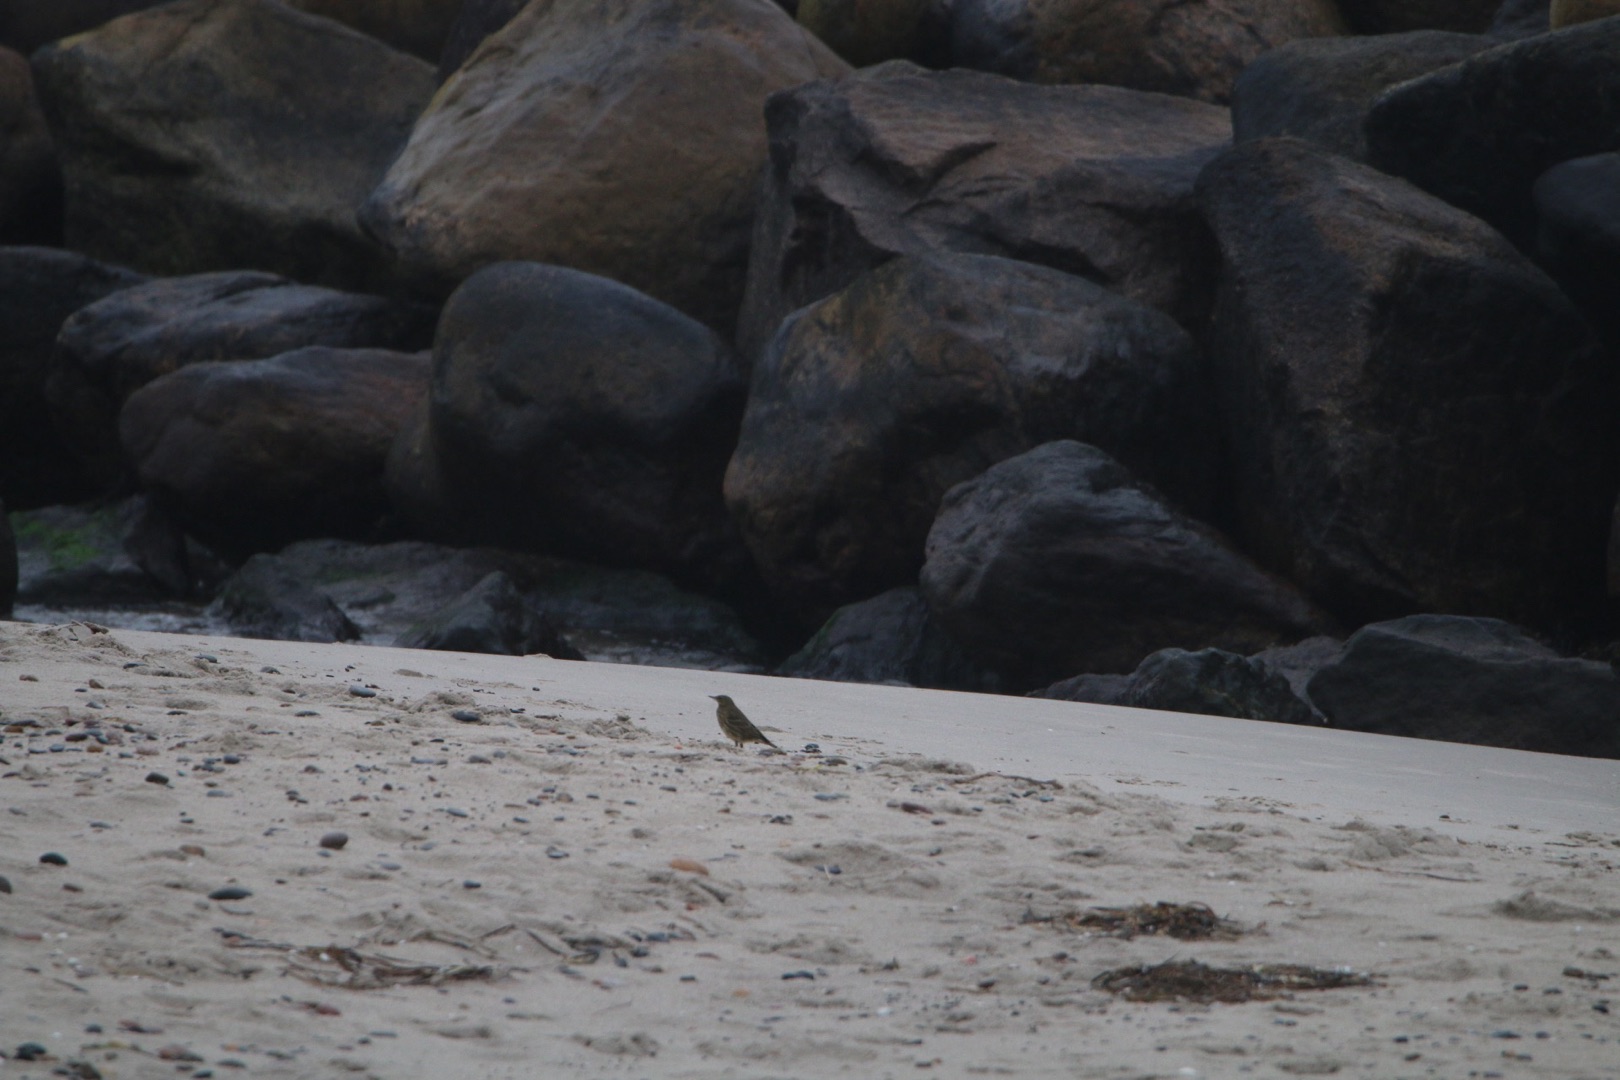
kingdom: Animalia
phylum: Chordata
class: Aves
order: Passeriformes
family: Motacillidae
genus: Anthus
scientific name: Anthus petrosus
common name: Skærpiber
